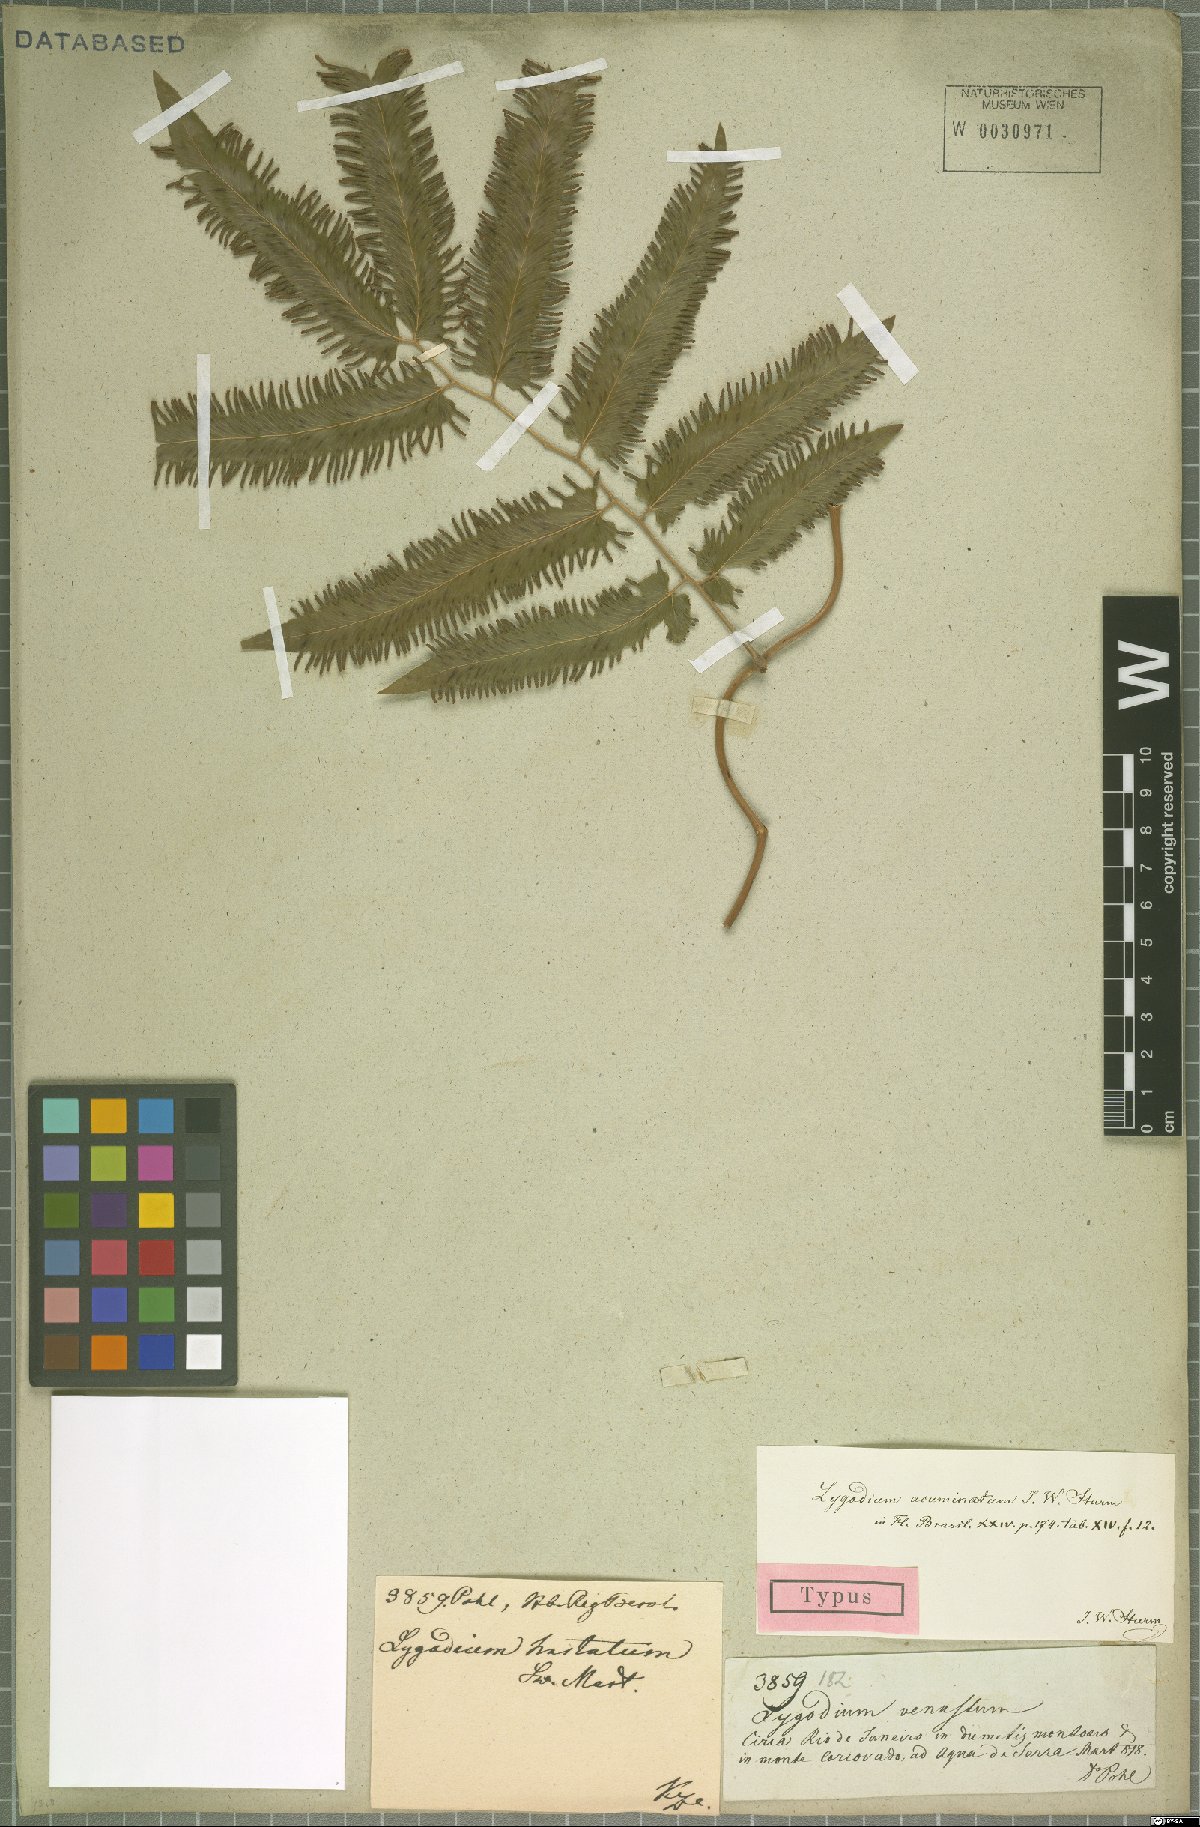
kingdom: Plantae
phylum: Tracheophyta
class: Polypodiopsida
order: Schizaeales
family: Lygodiaceae
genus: Lygodium
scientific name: Lygodium volubile
